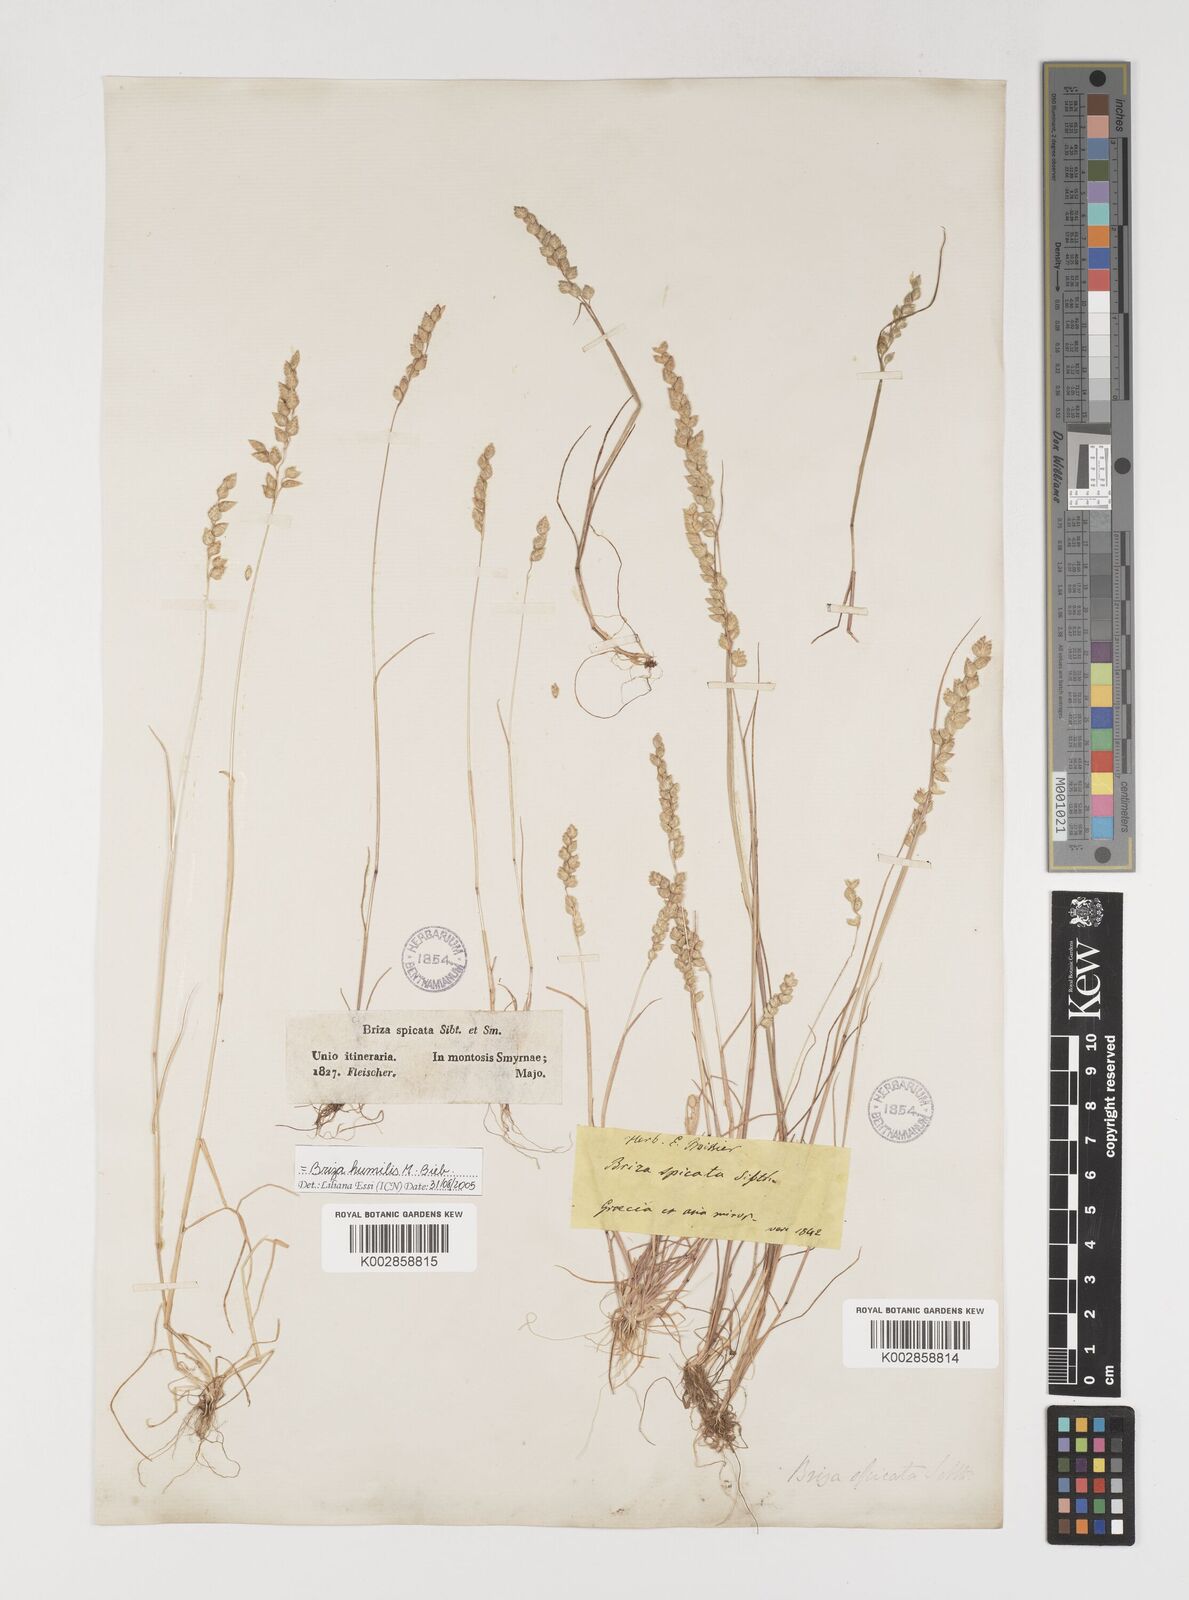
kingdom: Plantae
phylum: Tracheophyta
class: Liliopsida
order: Poales
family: Poaceae
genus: Briza
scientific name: Briza humilis
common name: Spiked quaking grass
